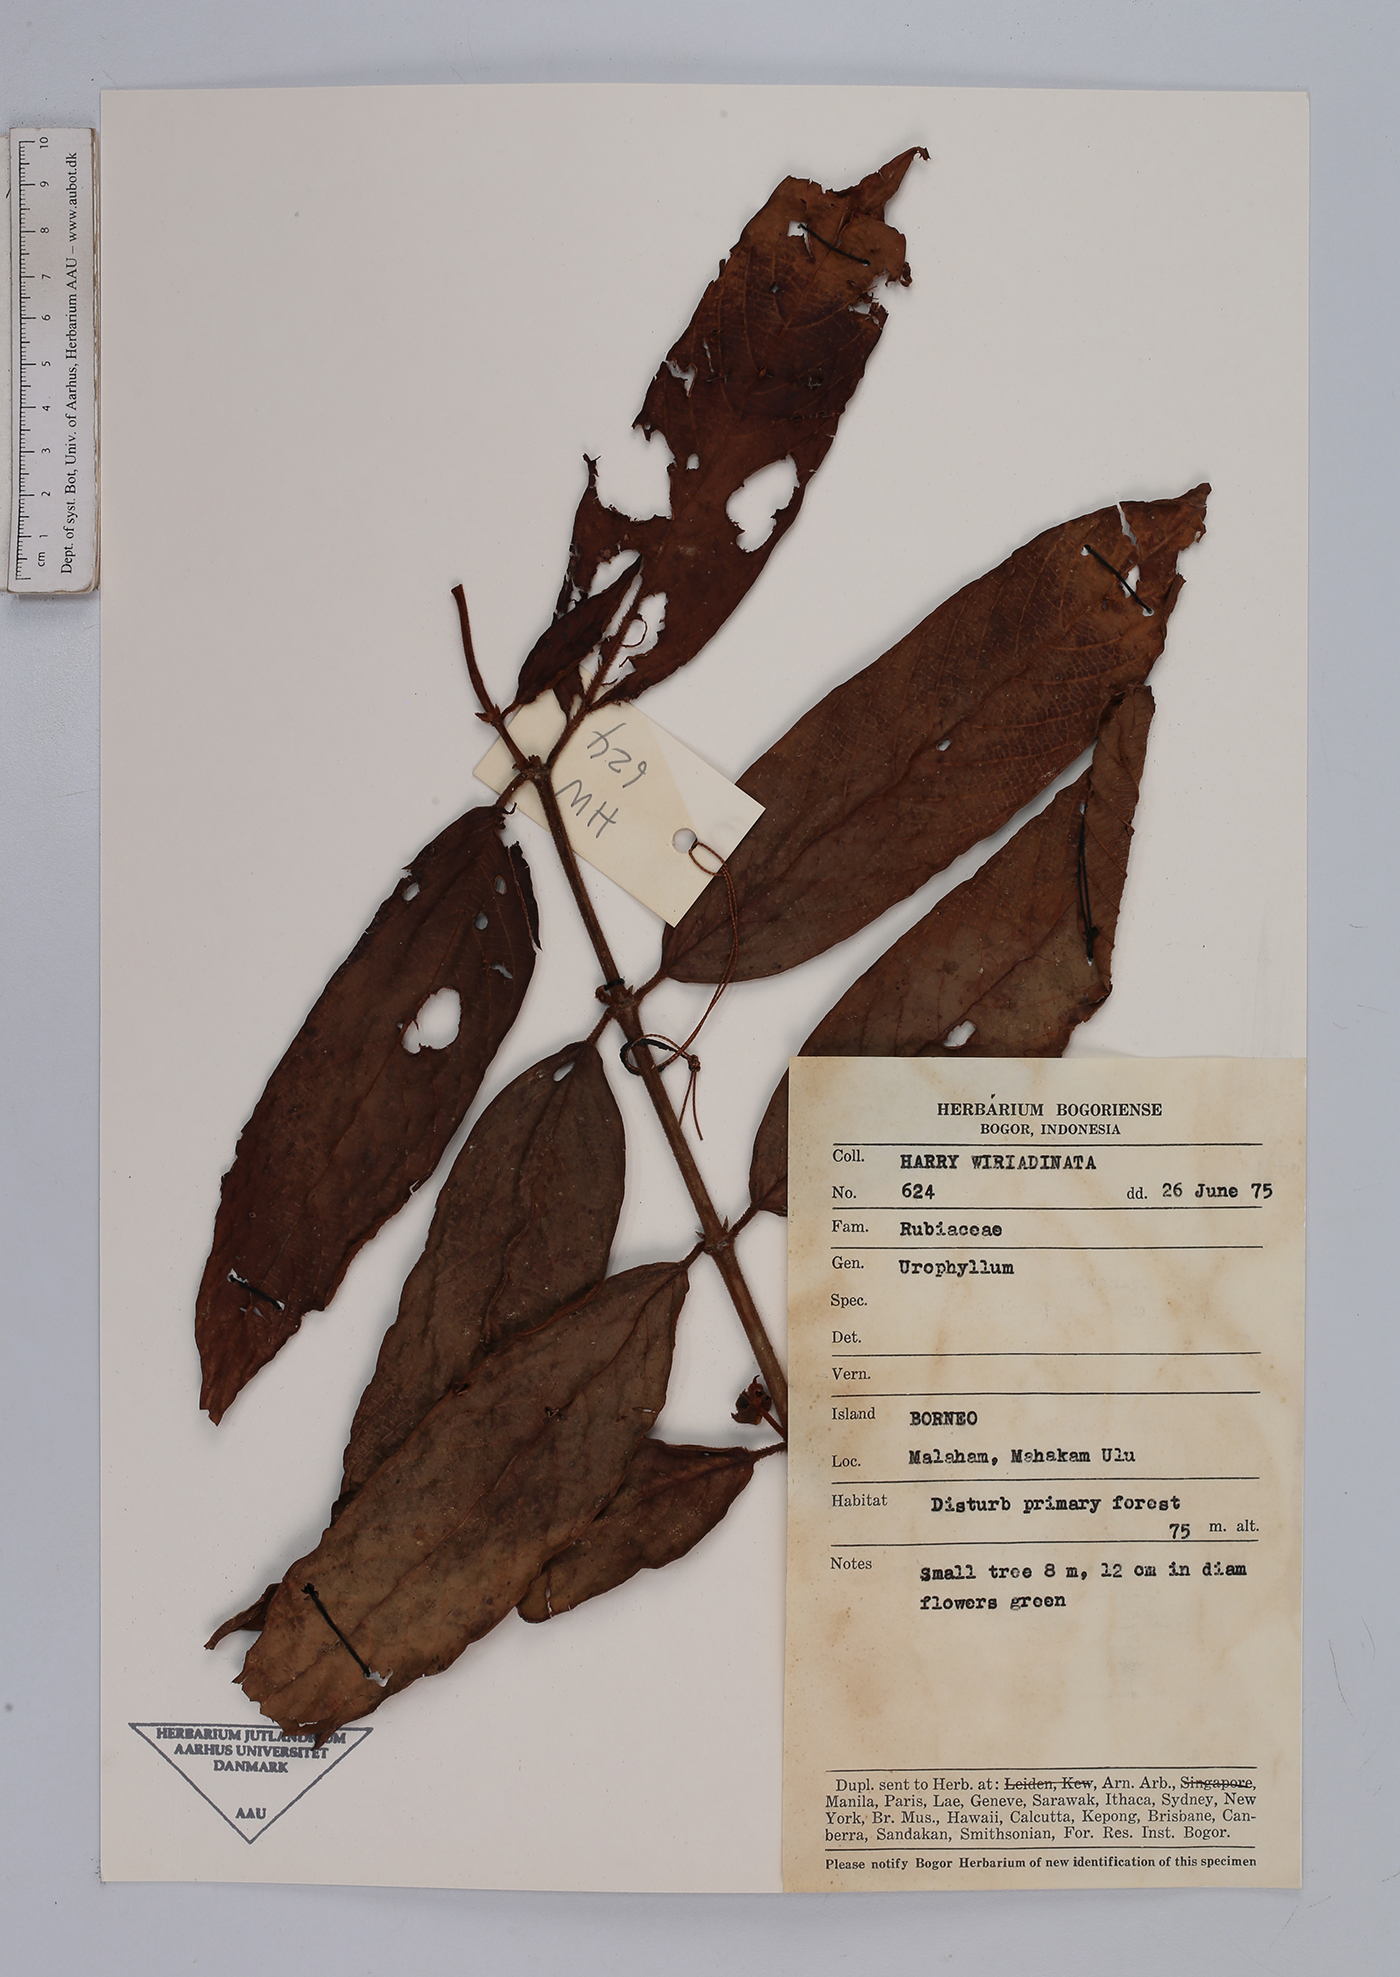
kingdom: Plantae
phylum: Tracheophyta
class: Magnoliopsida
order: Gentianales
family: Rubiaceae
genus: Urophyllum
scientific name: Urophyllum
